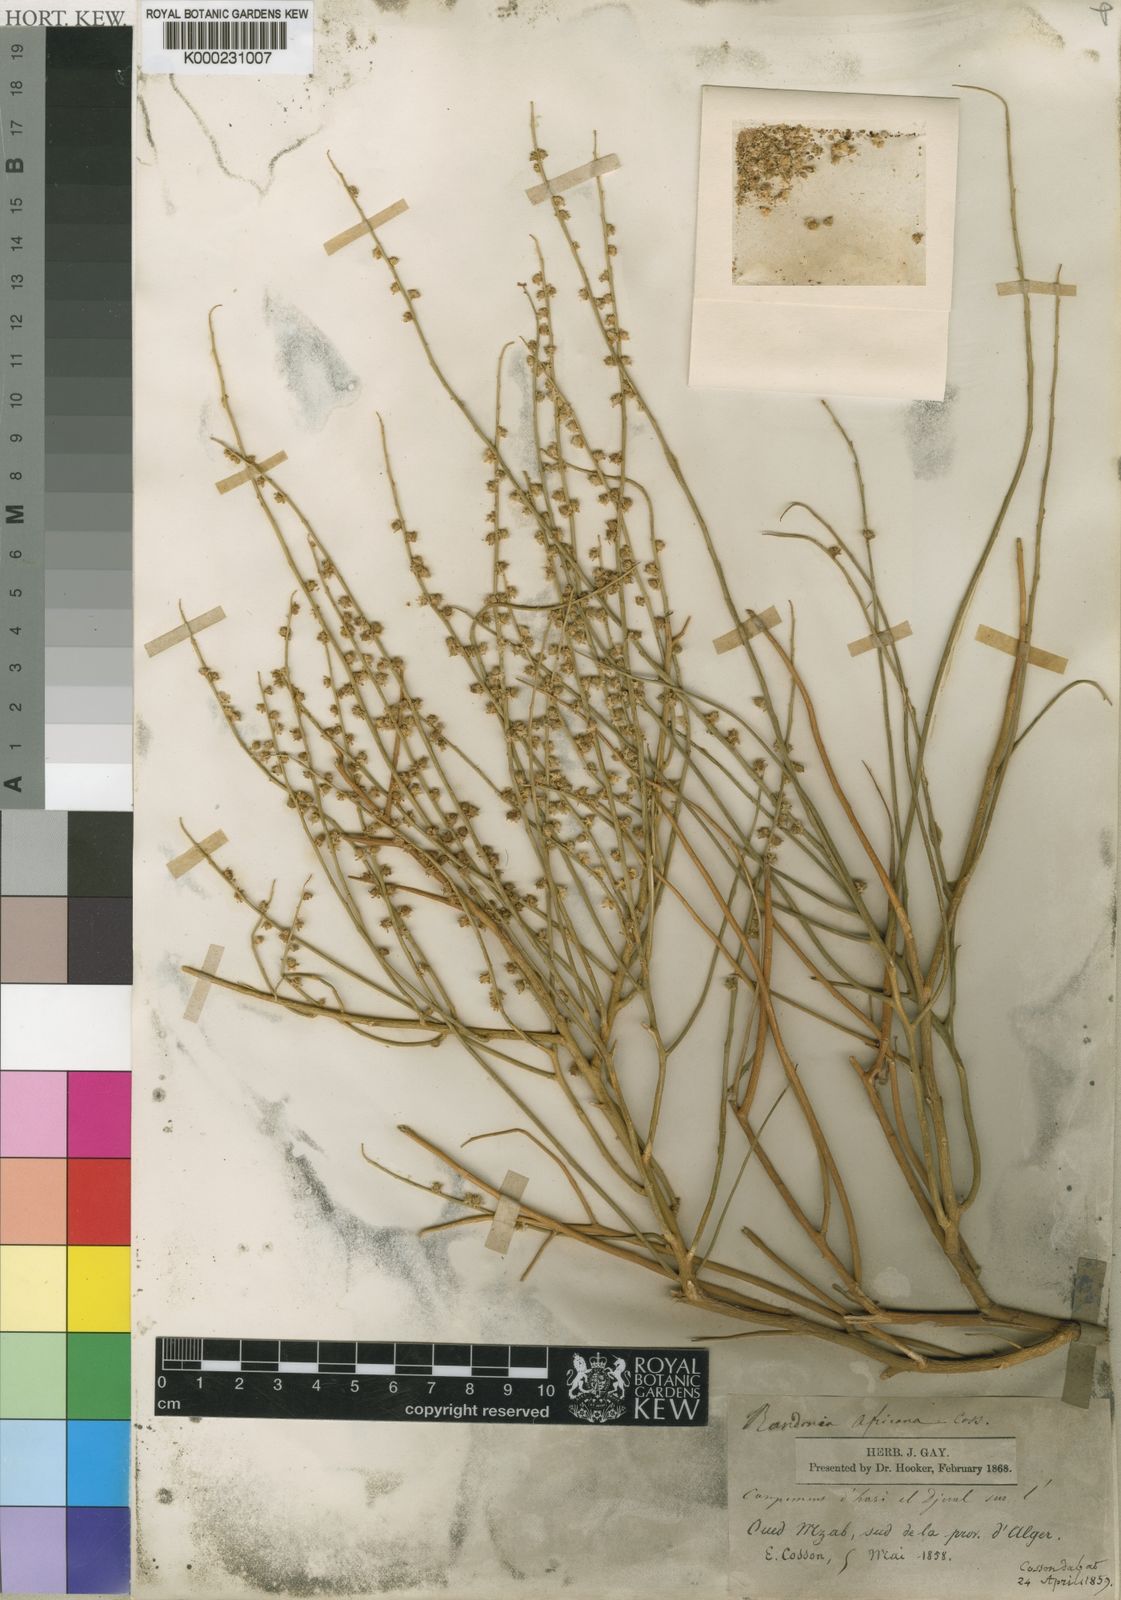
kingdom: Plantae
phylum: Tracheophyta
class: Magnoliopsida
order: Brassicales
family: Resedaceae
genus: Randonia
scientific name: Randonia
